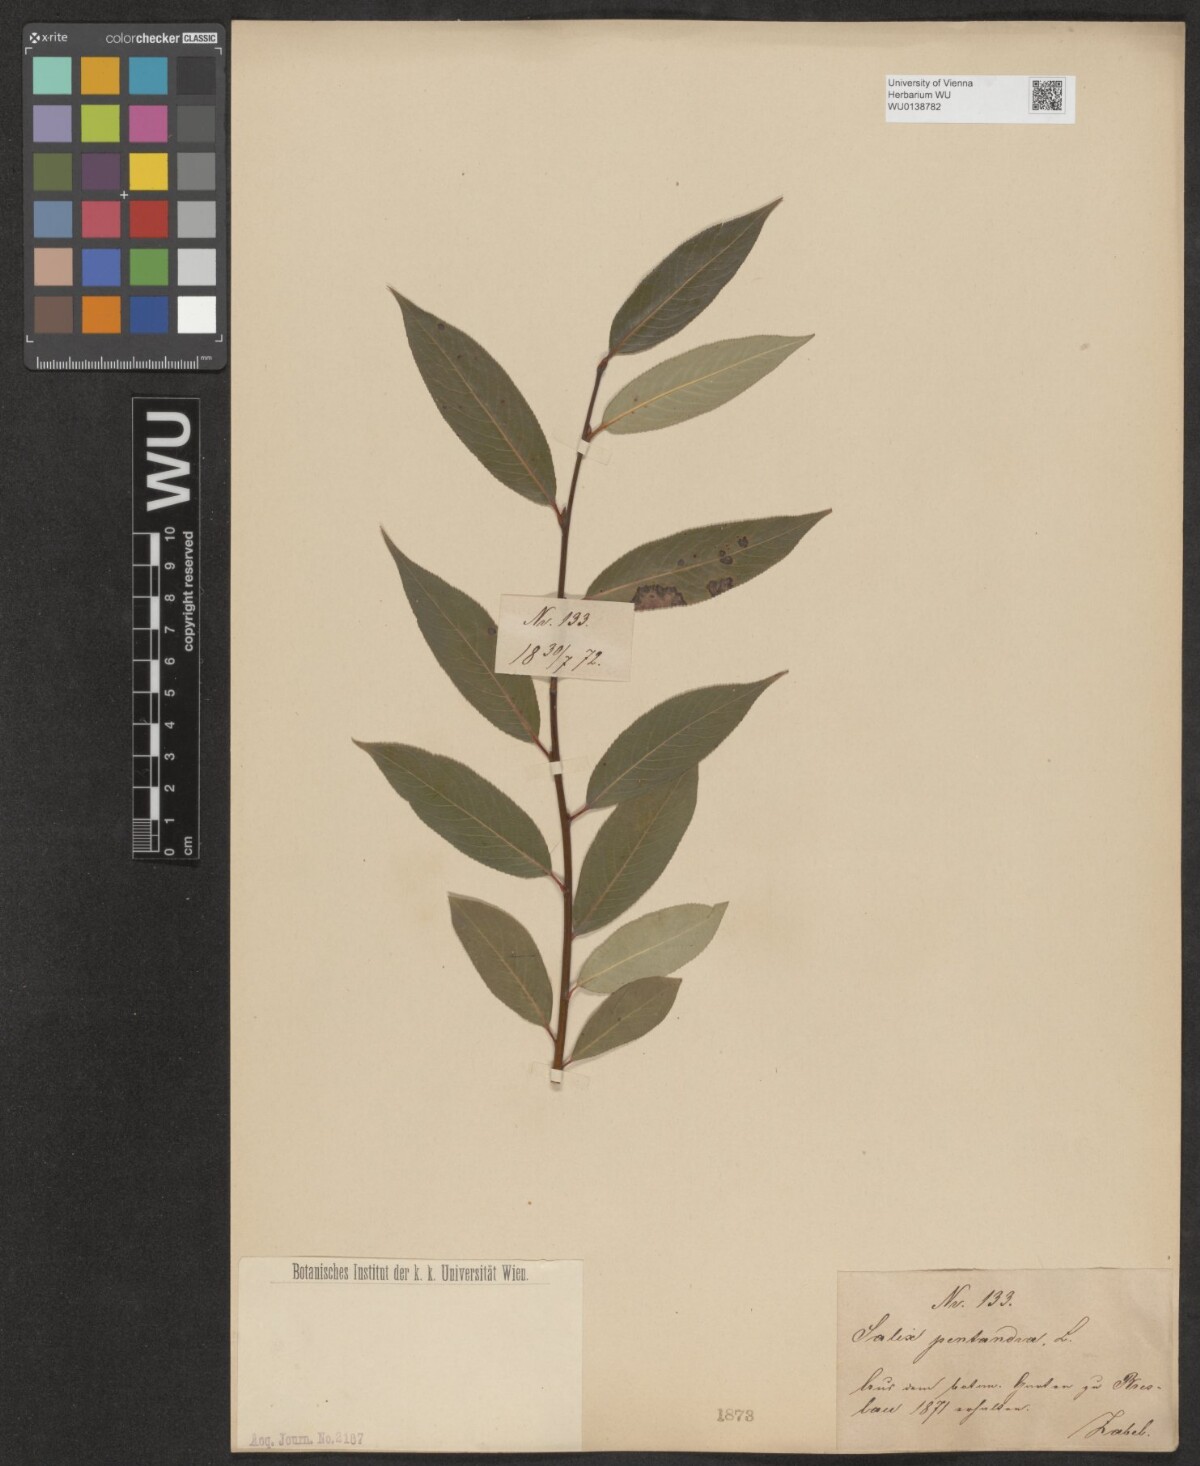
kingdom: Plantae
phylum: Tracheophyta
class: Magnoliopsida
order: Malpighiales
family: Salicaceae
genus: Salix
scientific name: Salix pentandra
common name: Bay willow
